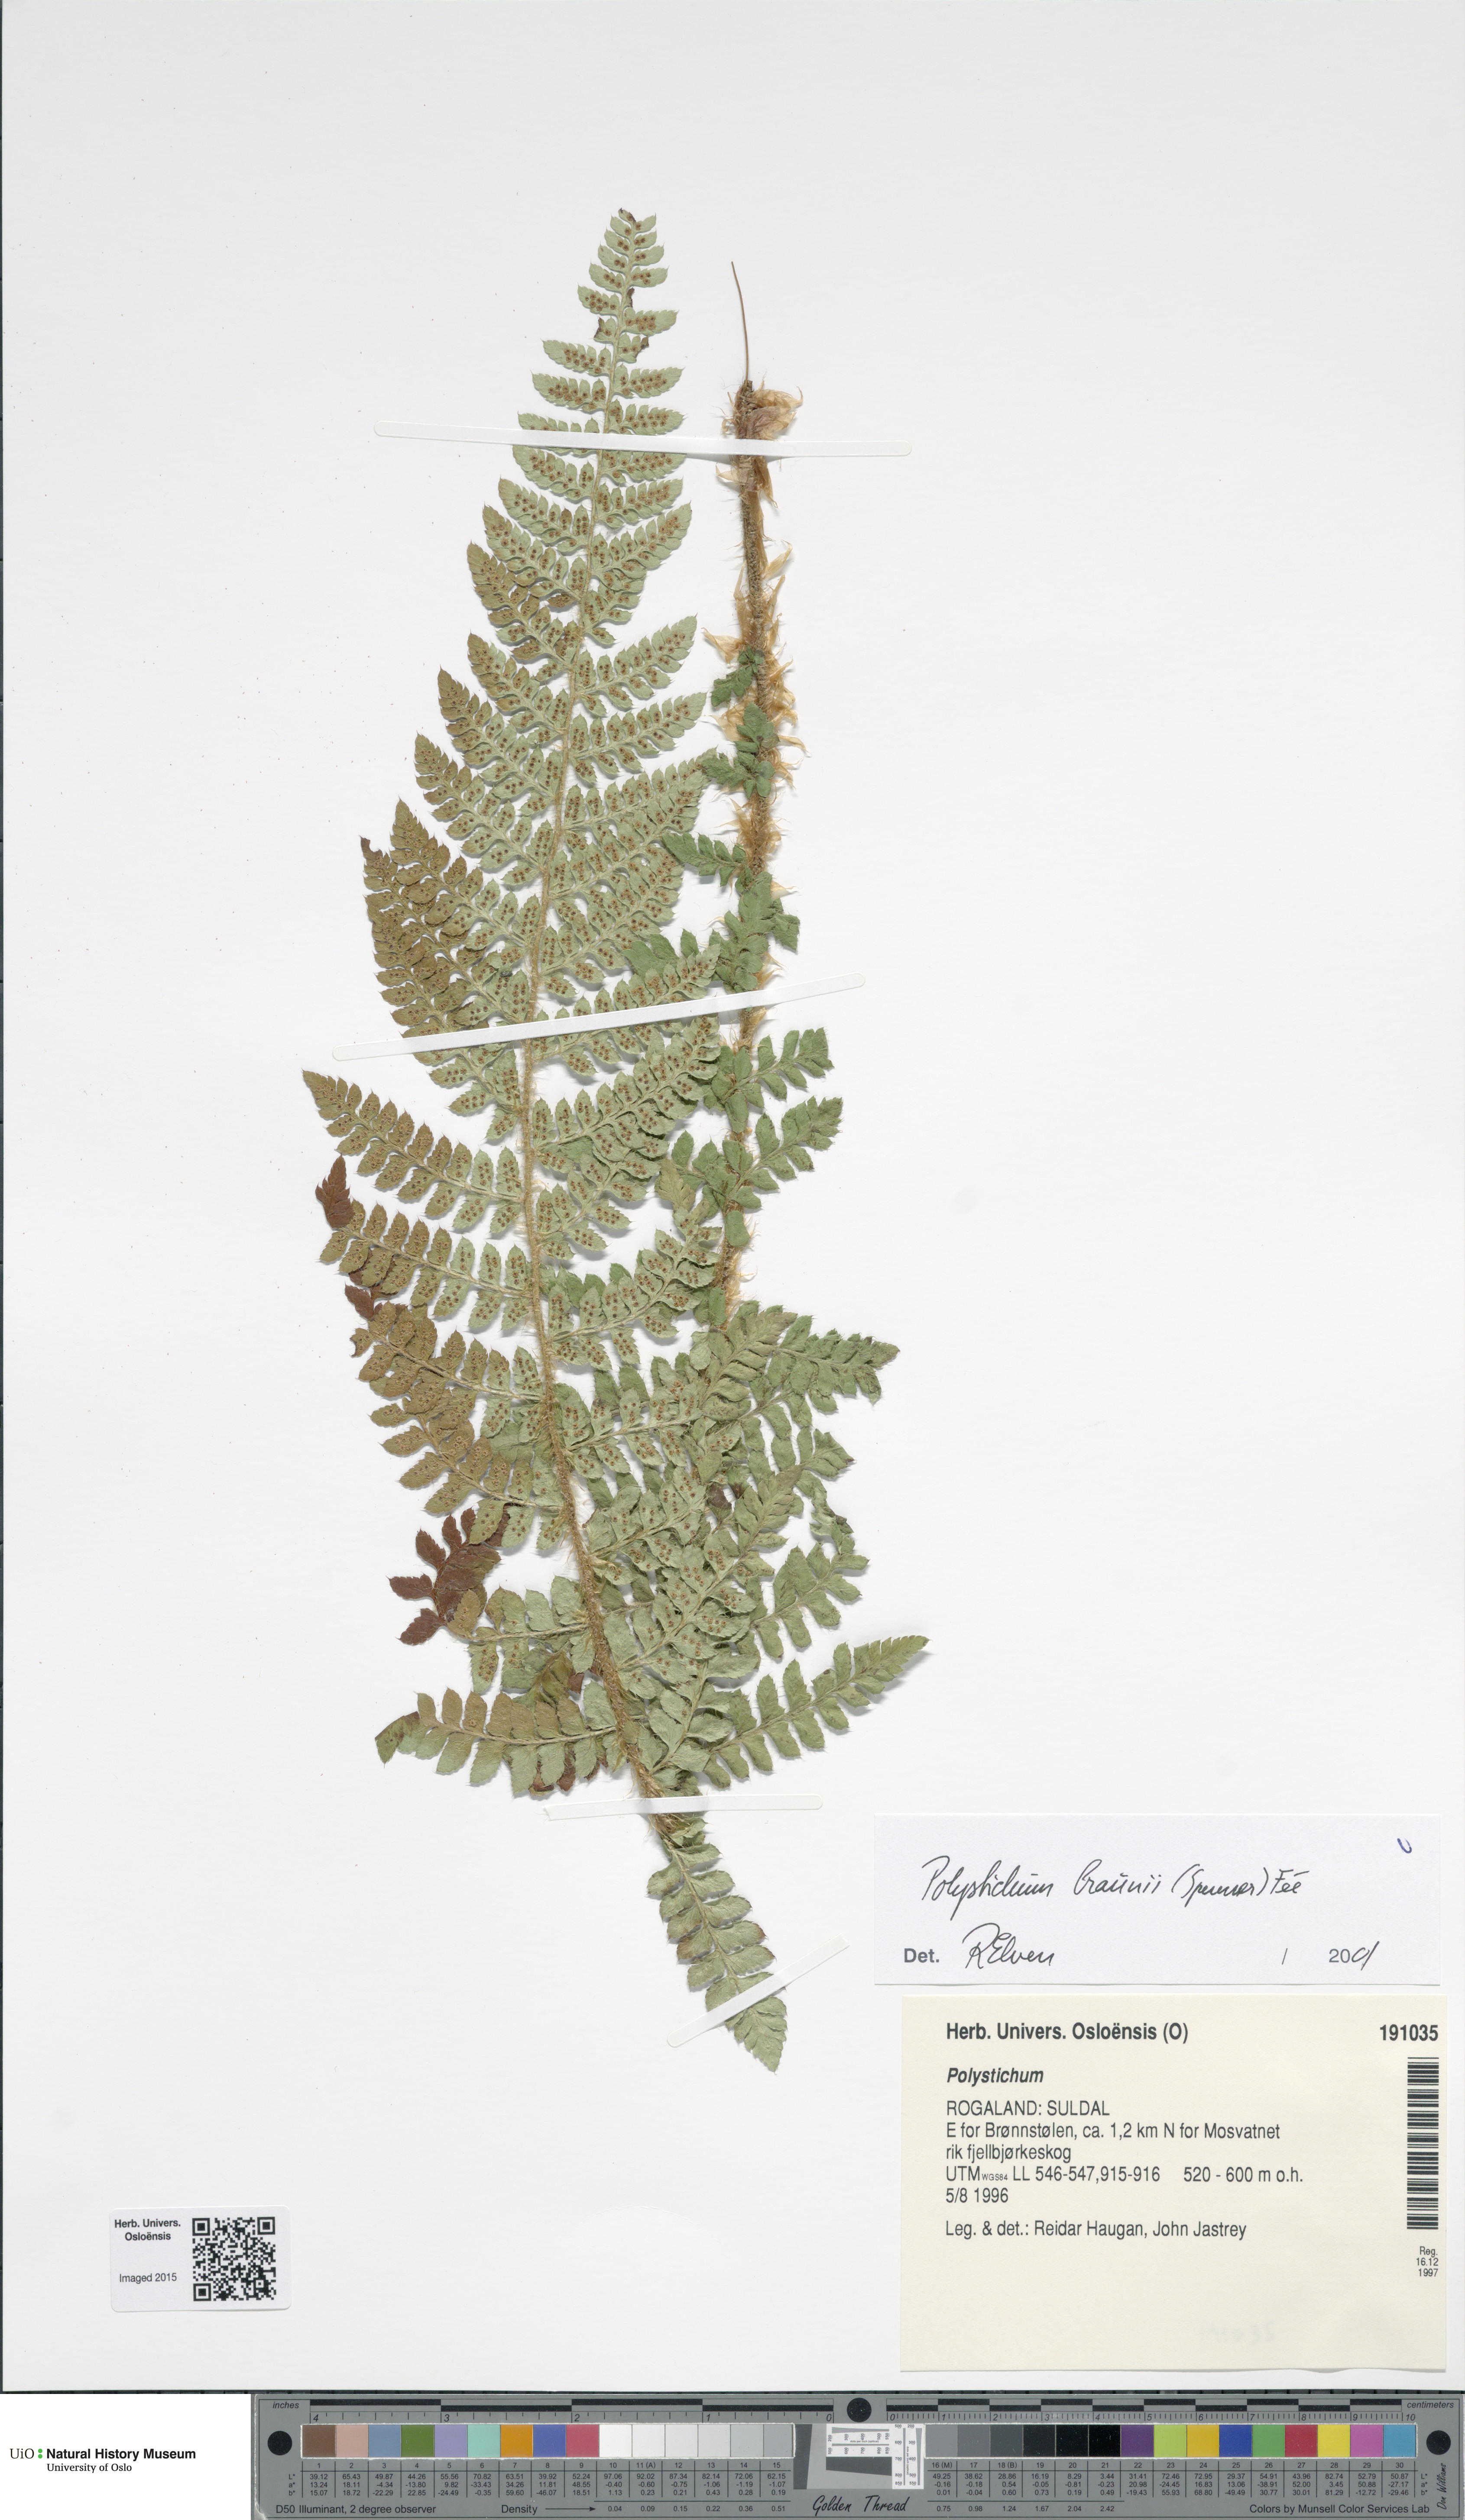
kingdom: Plantae
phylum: Tracheophyta
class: Polypodiopsida
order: Polypodiales
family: Dryopteridaceae
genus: Polystichum
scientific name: Polystichum braunii
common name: Braun's holly fern
